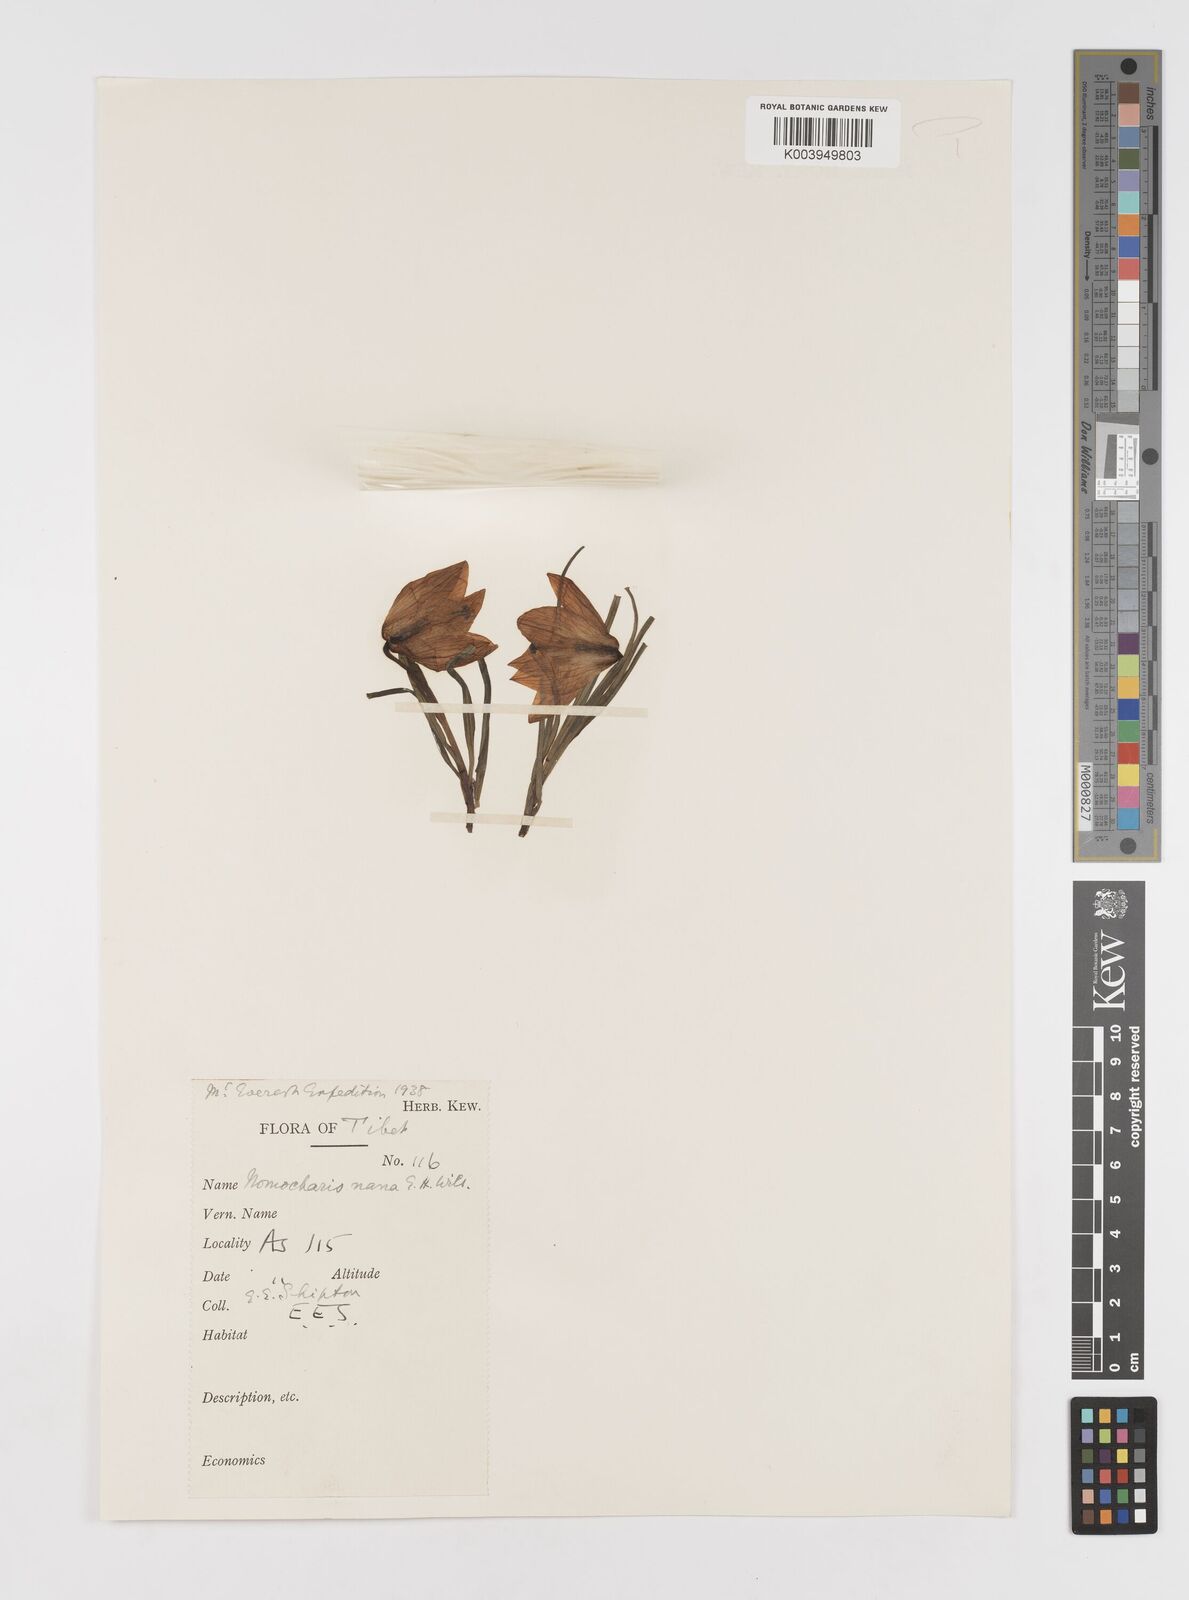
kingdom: Plantae
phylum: Tracheophyta
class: Liliopsida
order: Liliales
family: Liliaceae
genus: Lilium
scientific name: Lilium nanum
